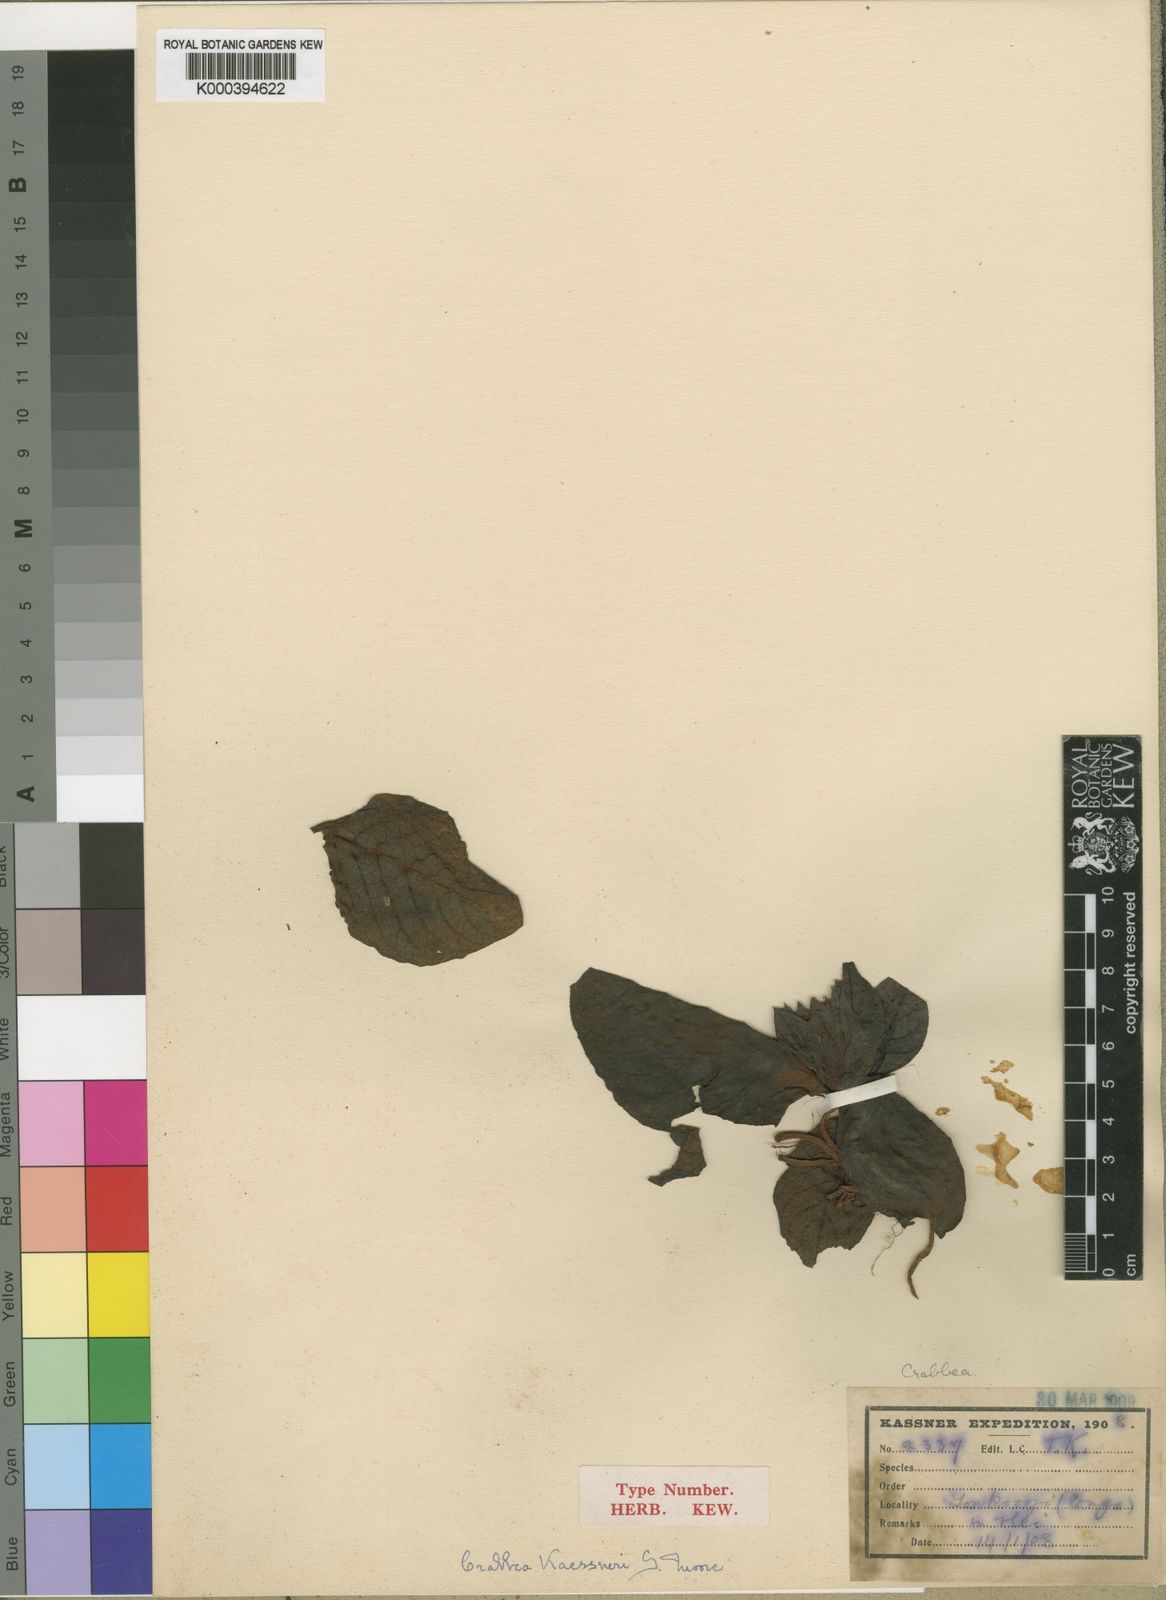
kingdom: Plantae
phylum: Tracheophyta
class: Magnoliopsida
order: Lamiales
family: Acanthaceae
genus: Crabbea
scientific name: Crabbea kaessneri
